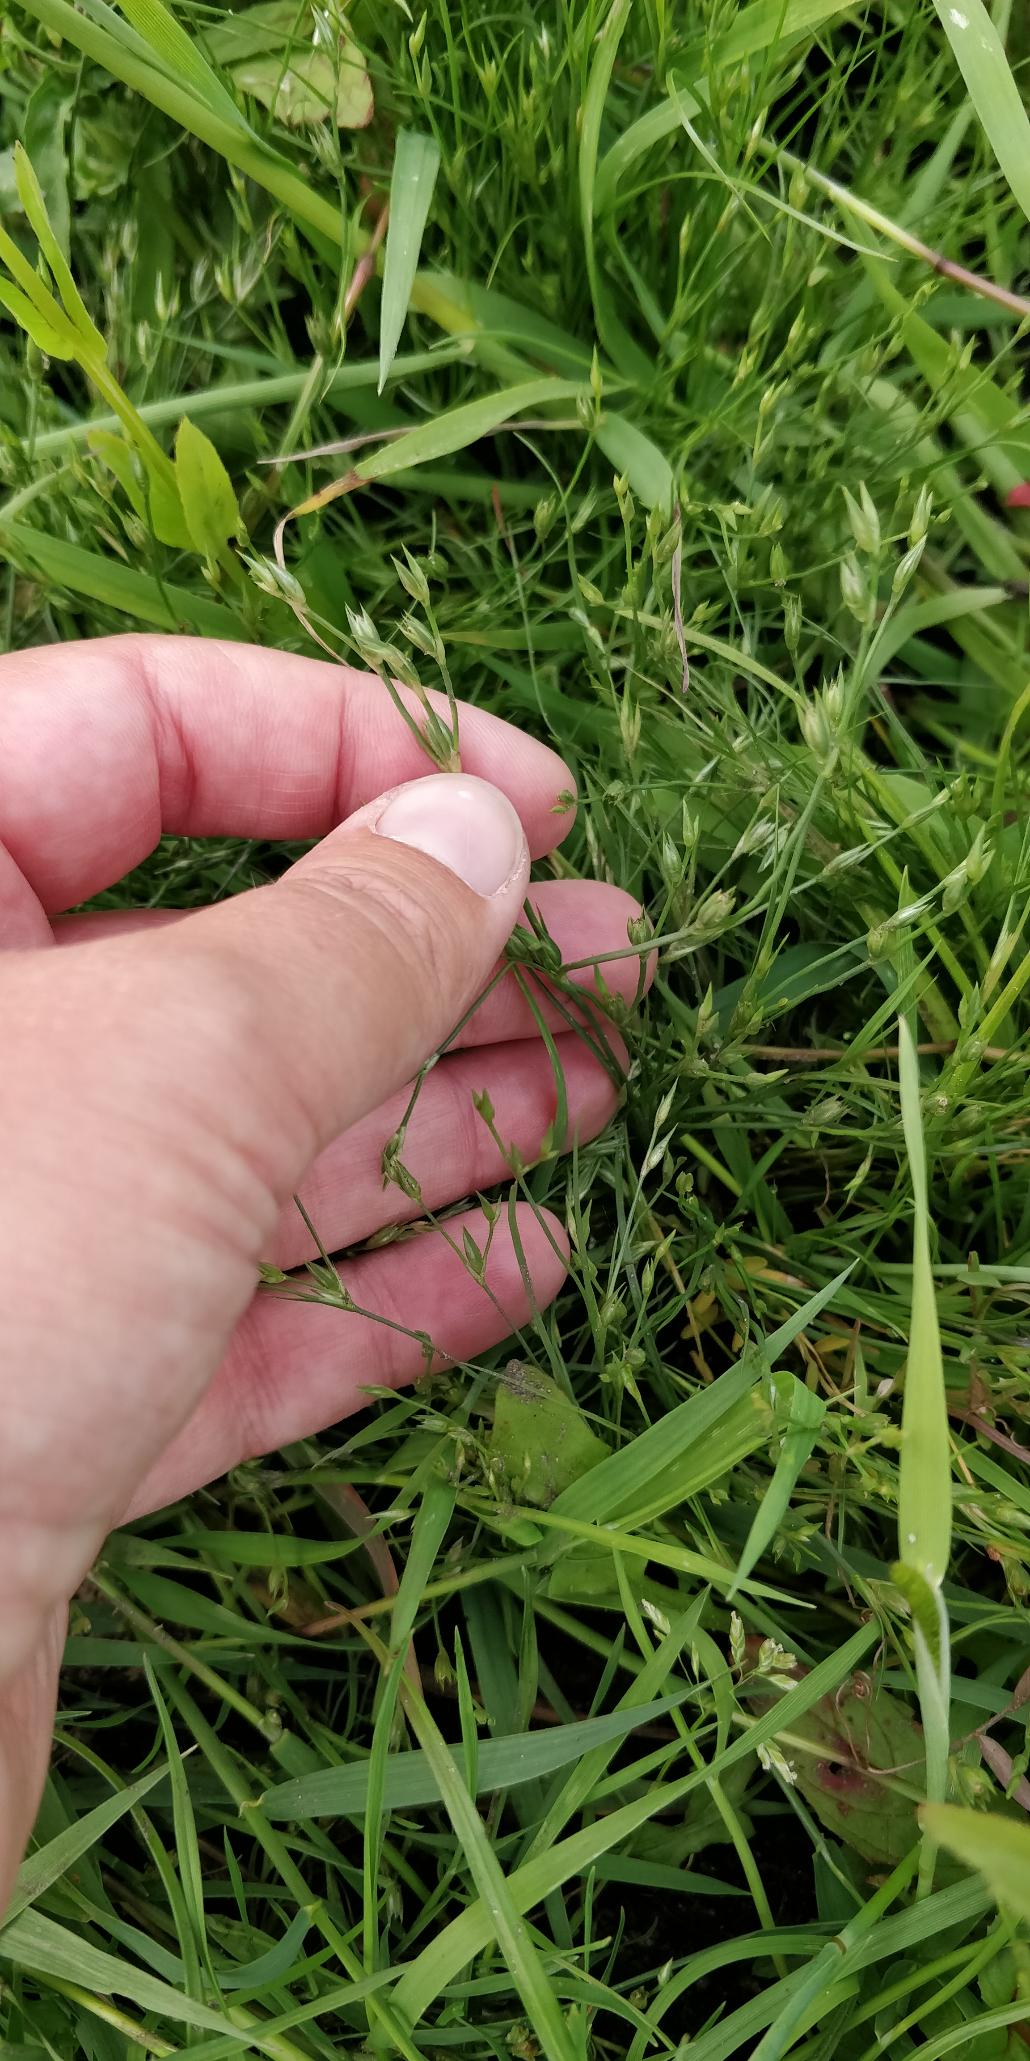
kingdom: Plantae
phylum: Tracheophyta
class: Liliopsida
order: Poales
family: Juncaceae
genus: Juncus
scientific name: Juncus bufonius
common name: Tudse-siv
